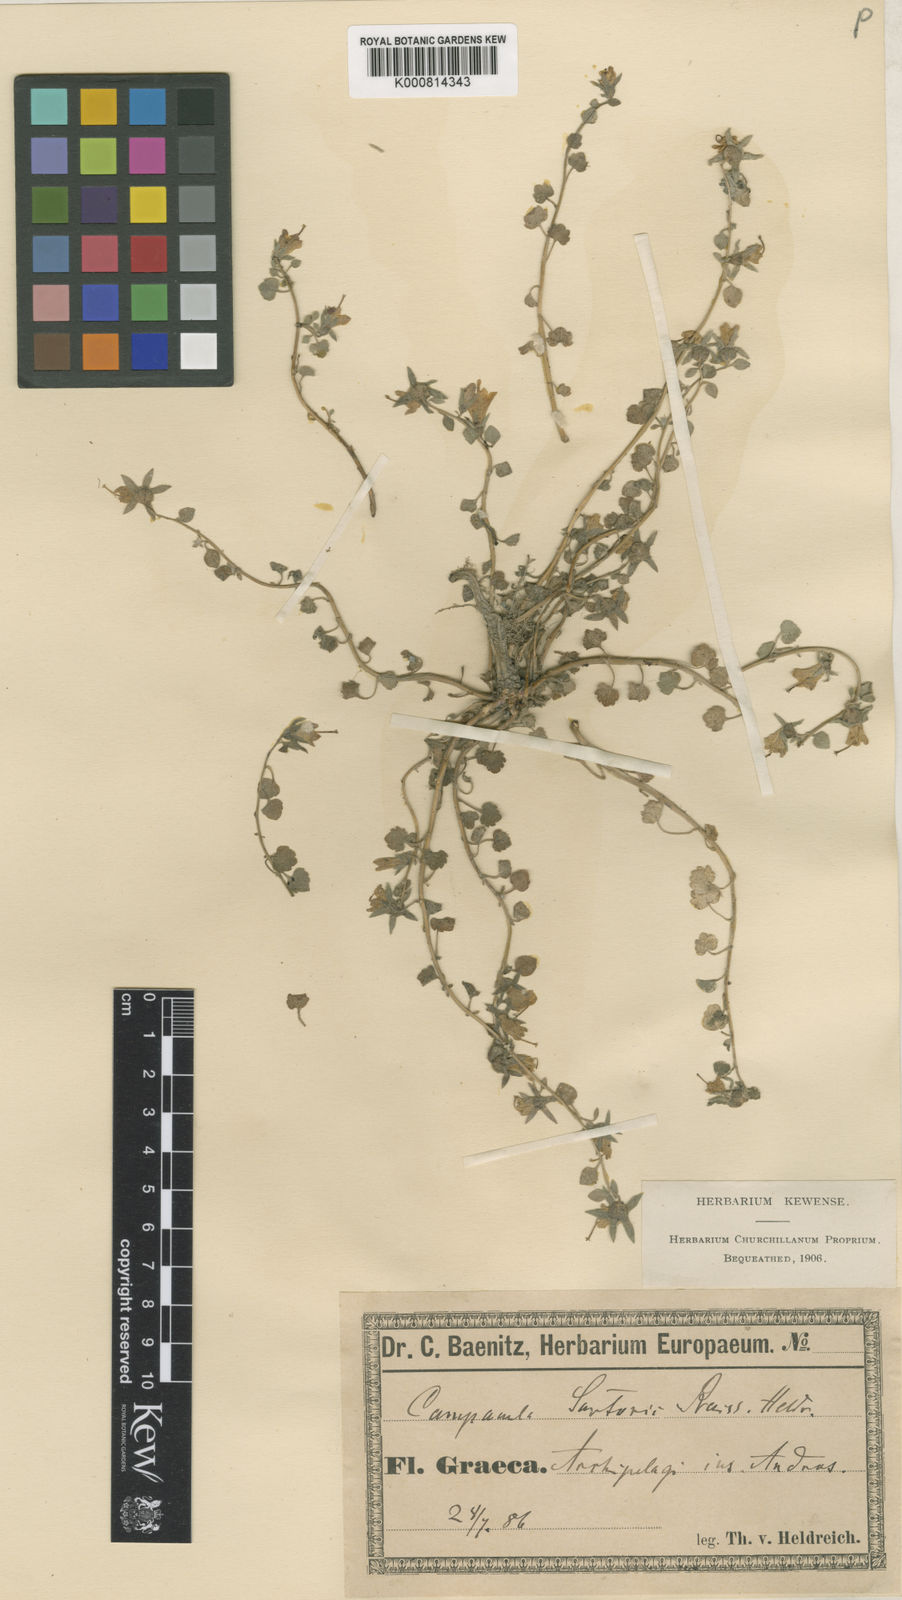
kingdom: Plantae
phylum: Tracheophyta
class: Magnoliopsida
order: Asterales
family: Campanulaceae
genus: Campanula
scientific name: Campanula sartorii
